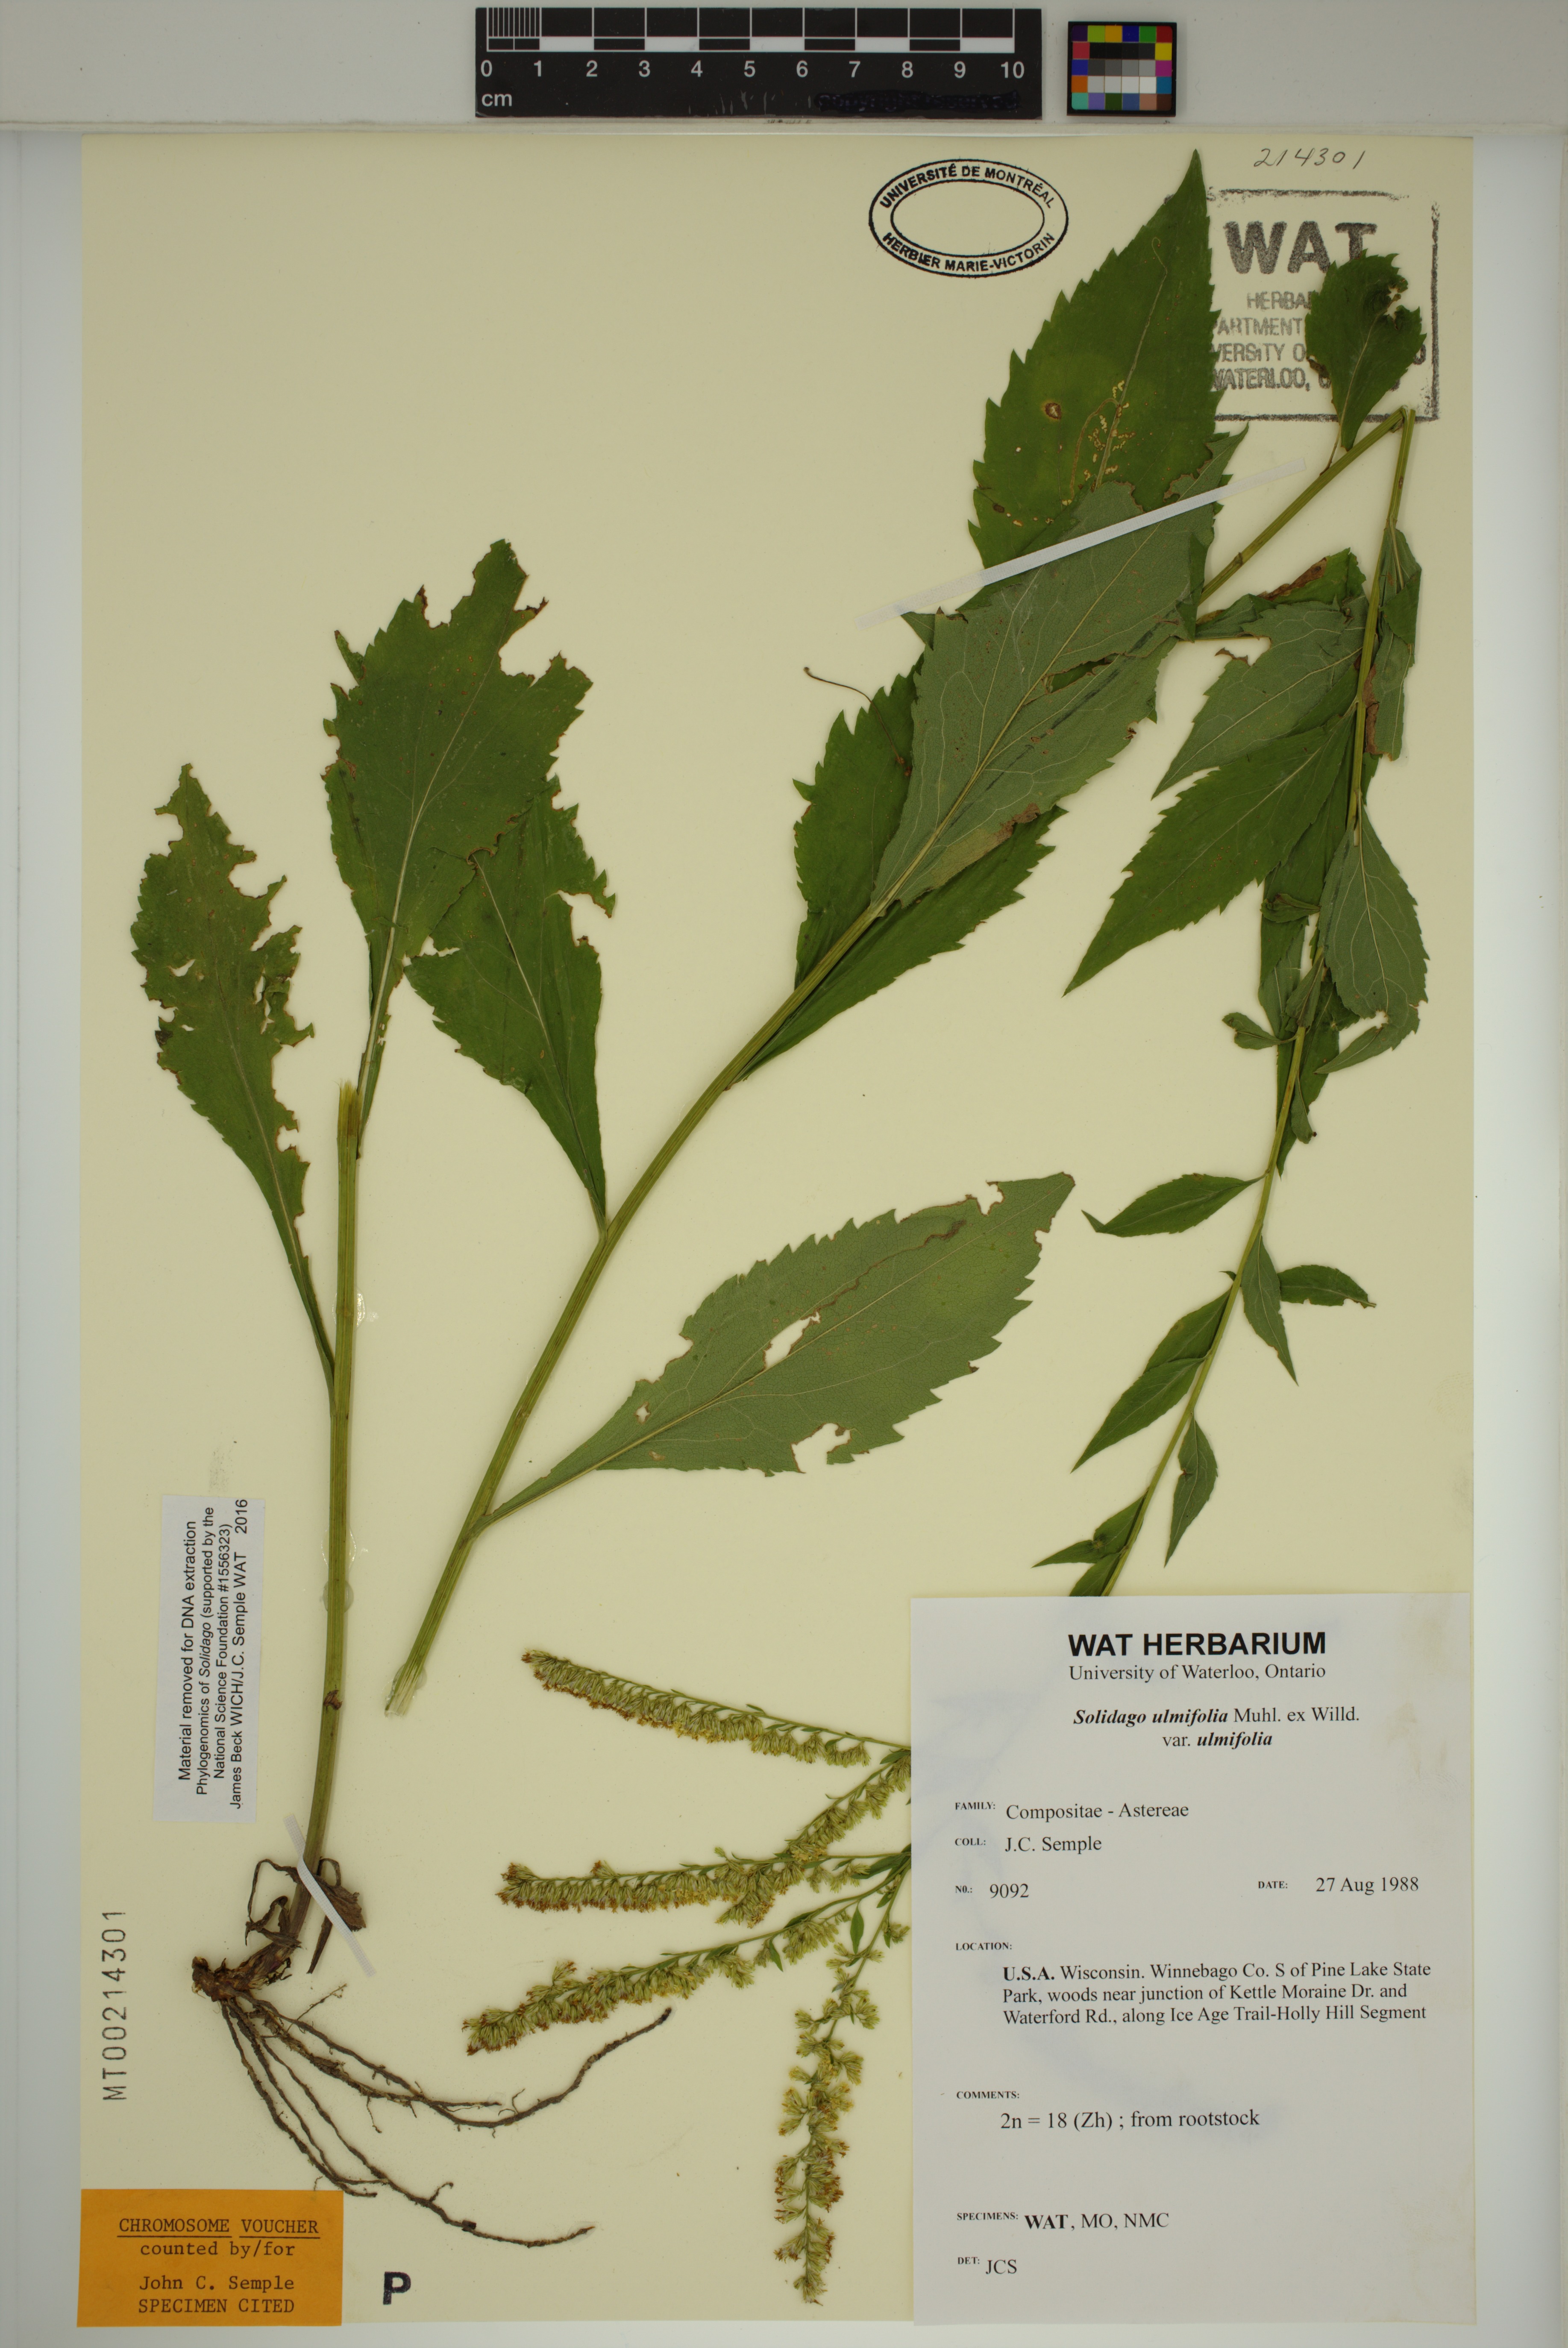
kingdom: Plantae
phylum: Tracheophyta
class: Magnoliopsida
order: Asterales
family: Asteraceae
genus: Solidago
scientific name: Solidago ulmifolia
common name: Elm-leaf goldenrod
